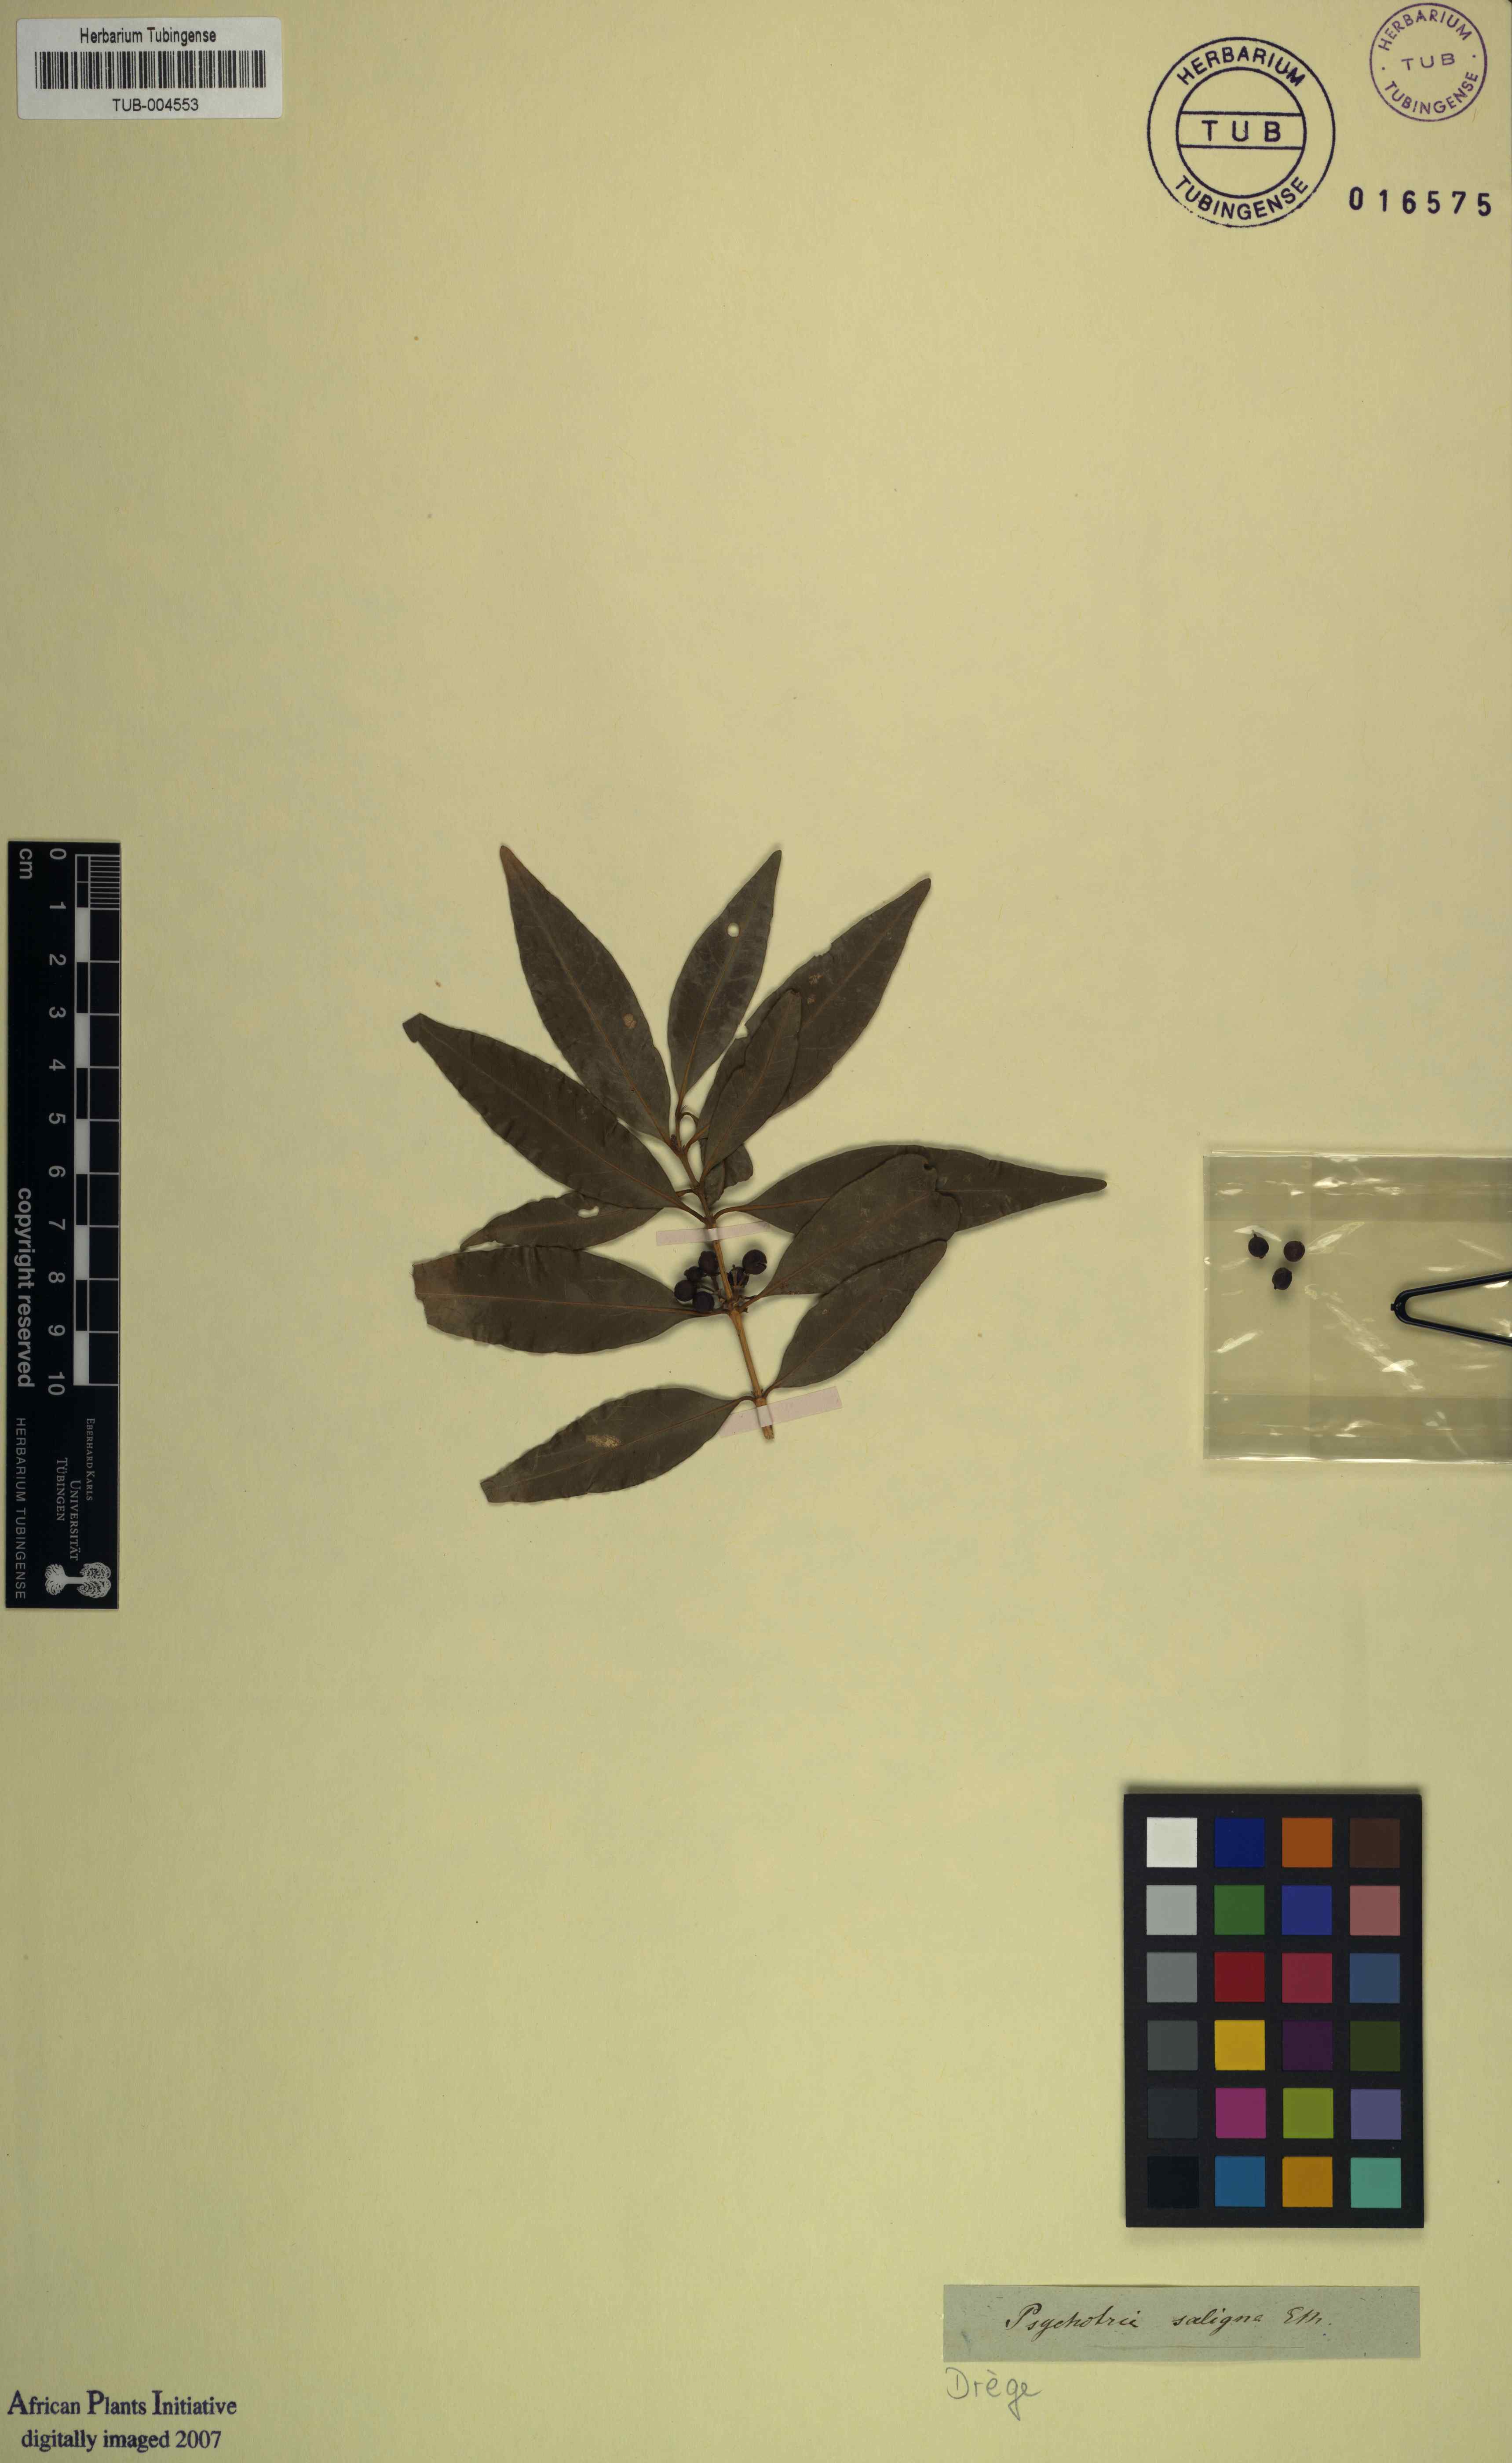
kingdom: Plantae
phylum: Tracheophyta
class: Magnoliopsida
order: Gentianales
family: Rubiaceae
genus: Empogona
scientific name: Empogona lanceolata
